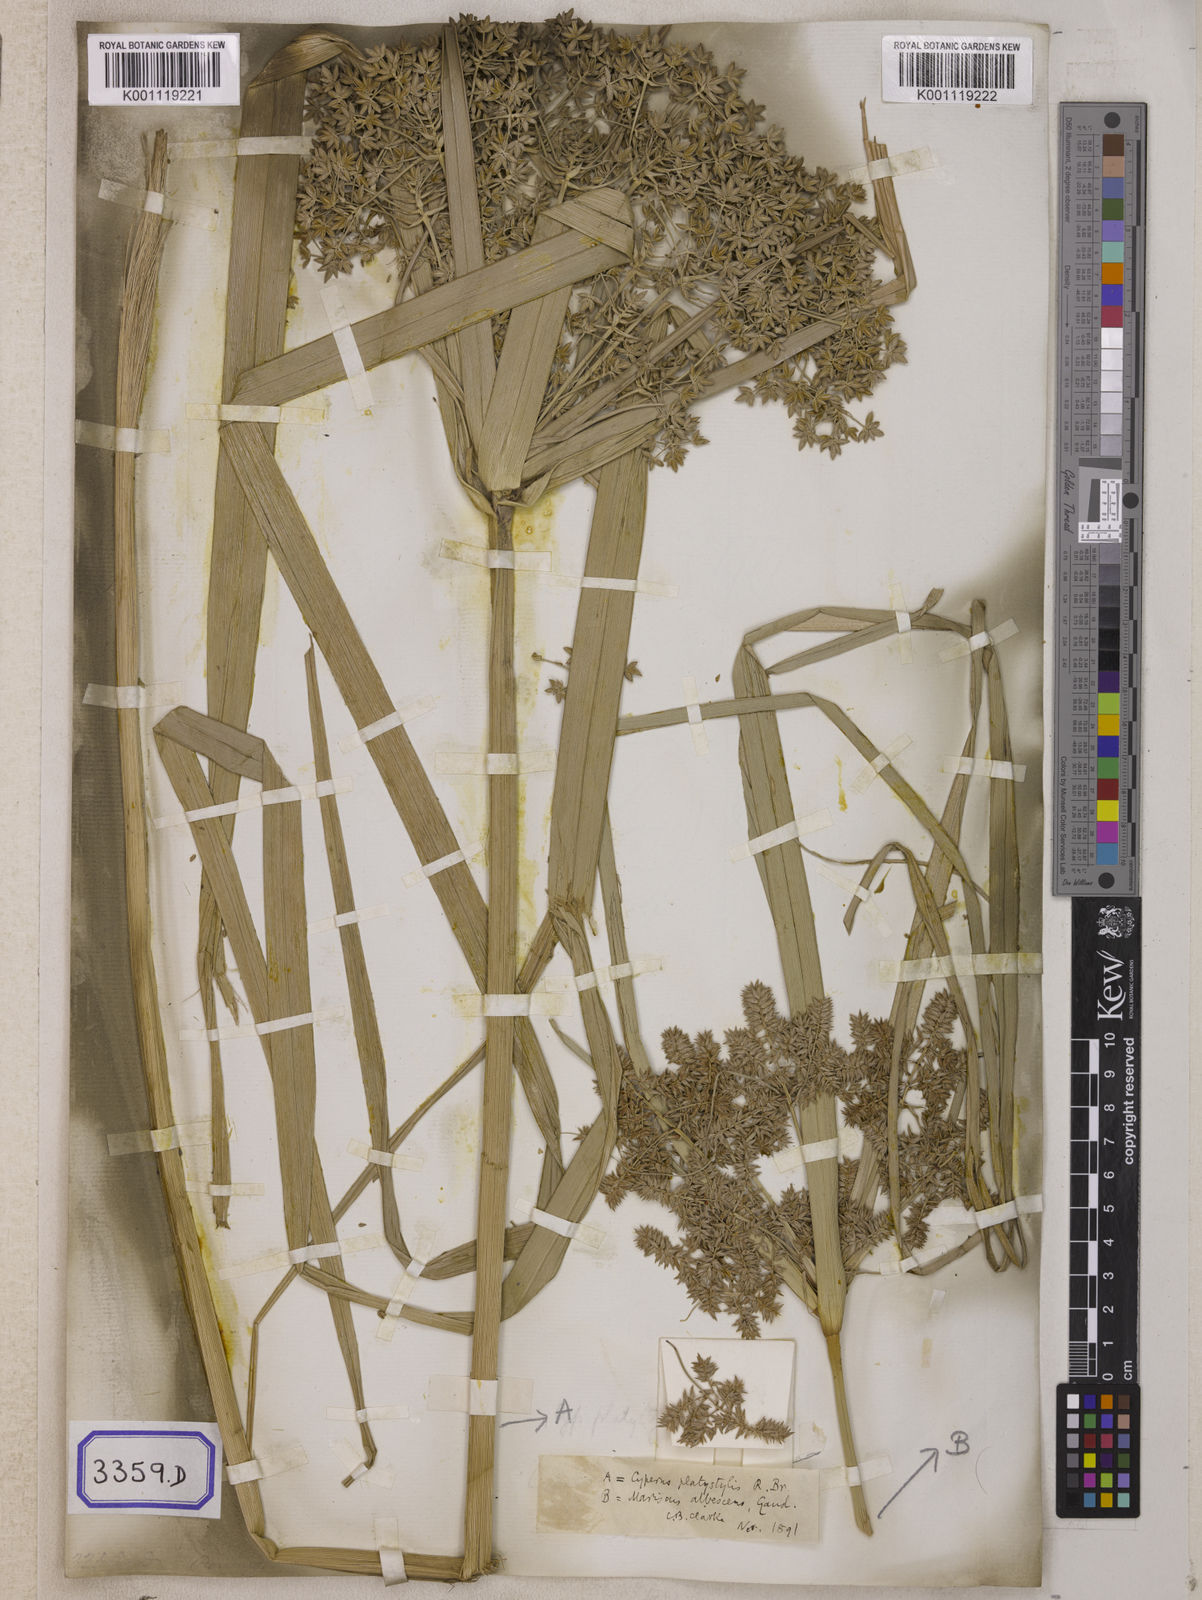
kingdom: Plantae
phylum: Tracheophyta
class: Liliopsida
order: Poales
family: Cyperaceae
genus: Cyperus
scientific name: Cyperus
